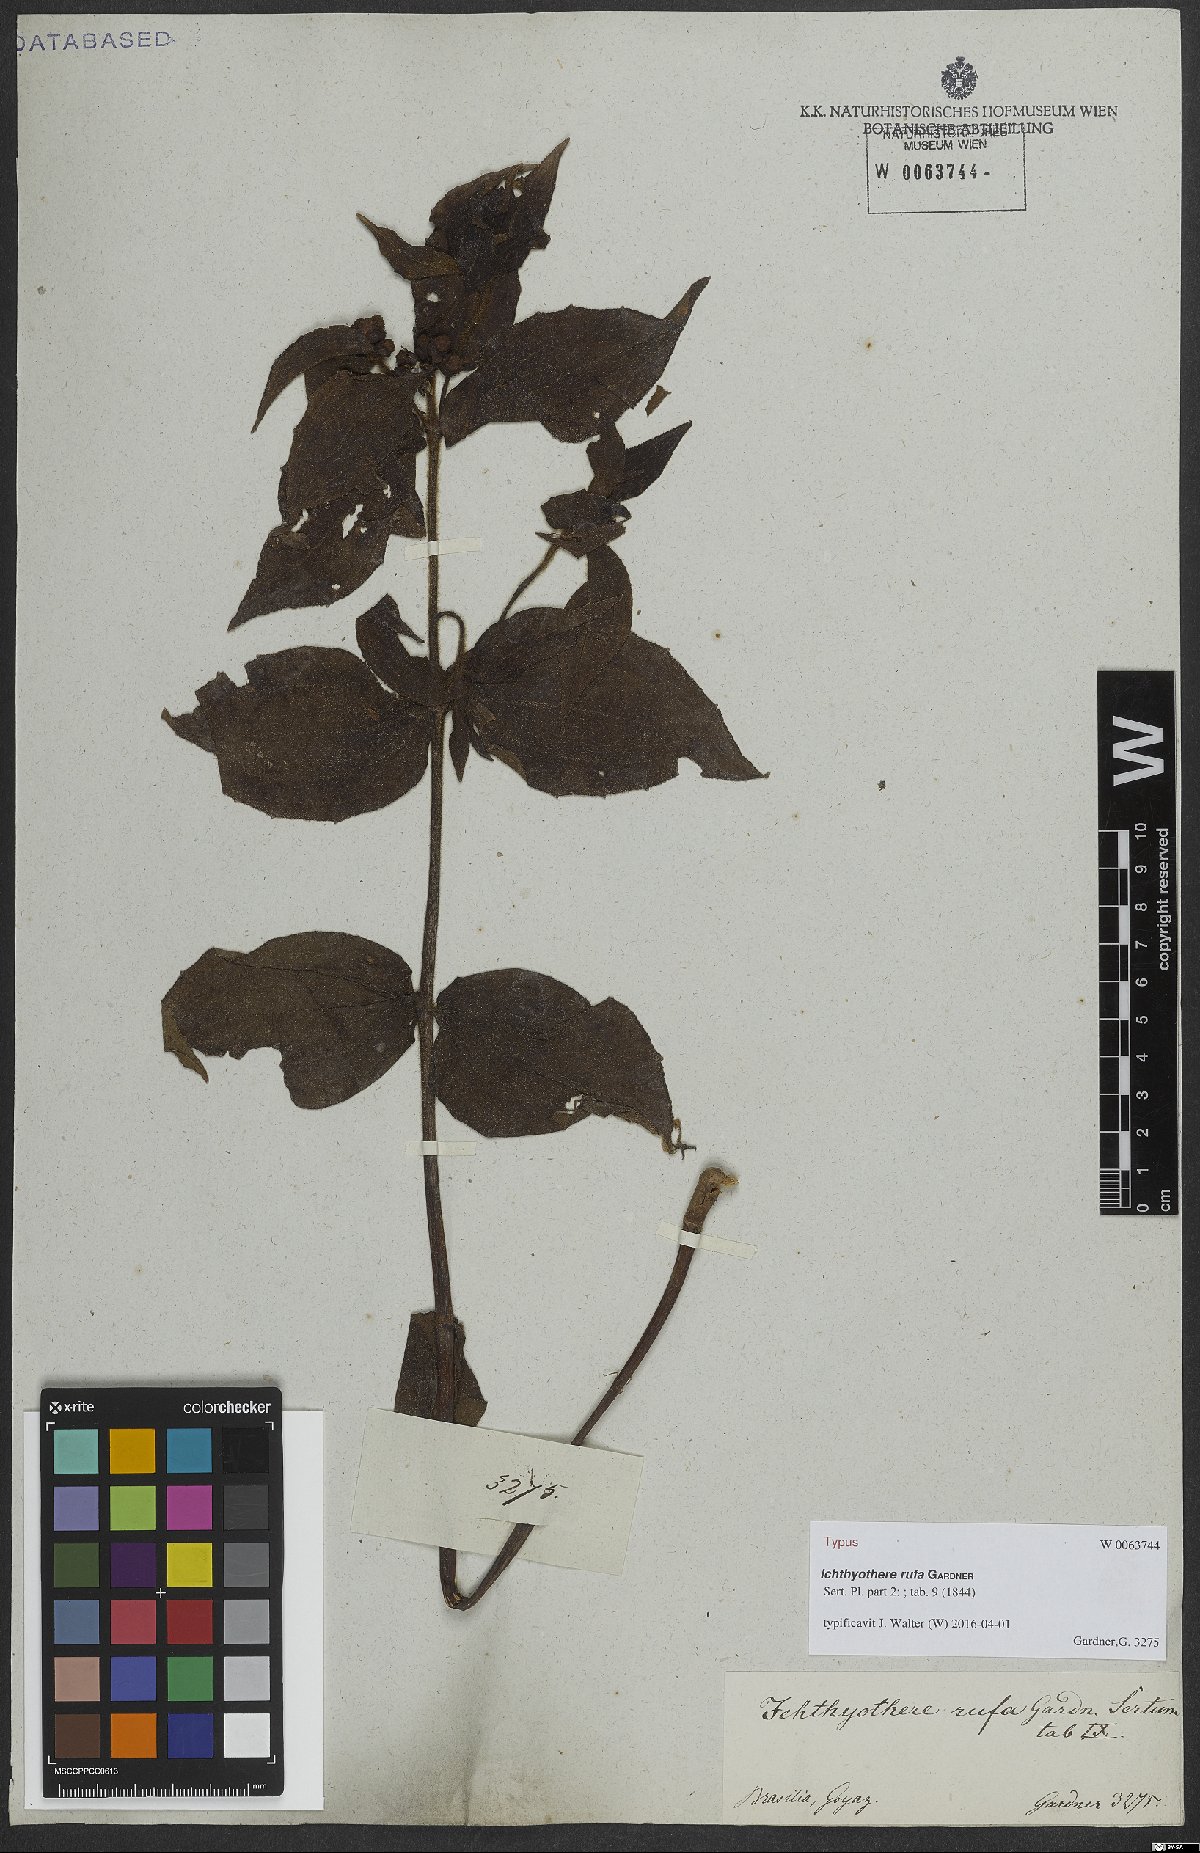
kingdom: Plantae
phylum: Tracheophyta
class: Magnoliopsida
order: Asterales
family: Asteraceae
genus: Ichthyothere
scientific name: Ichthyothere rufa
